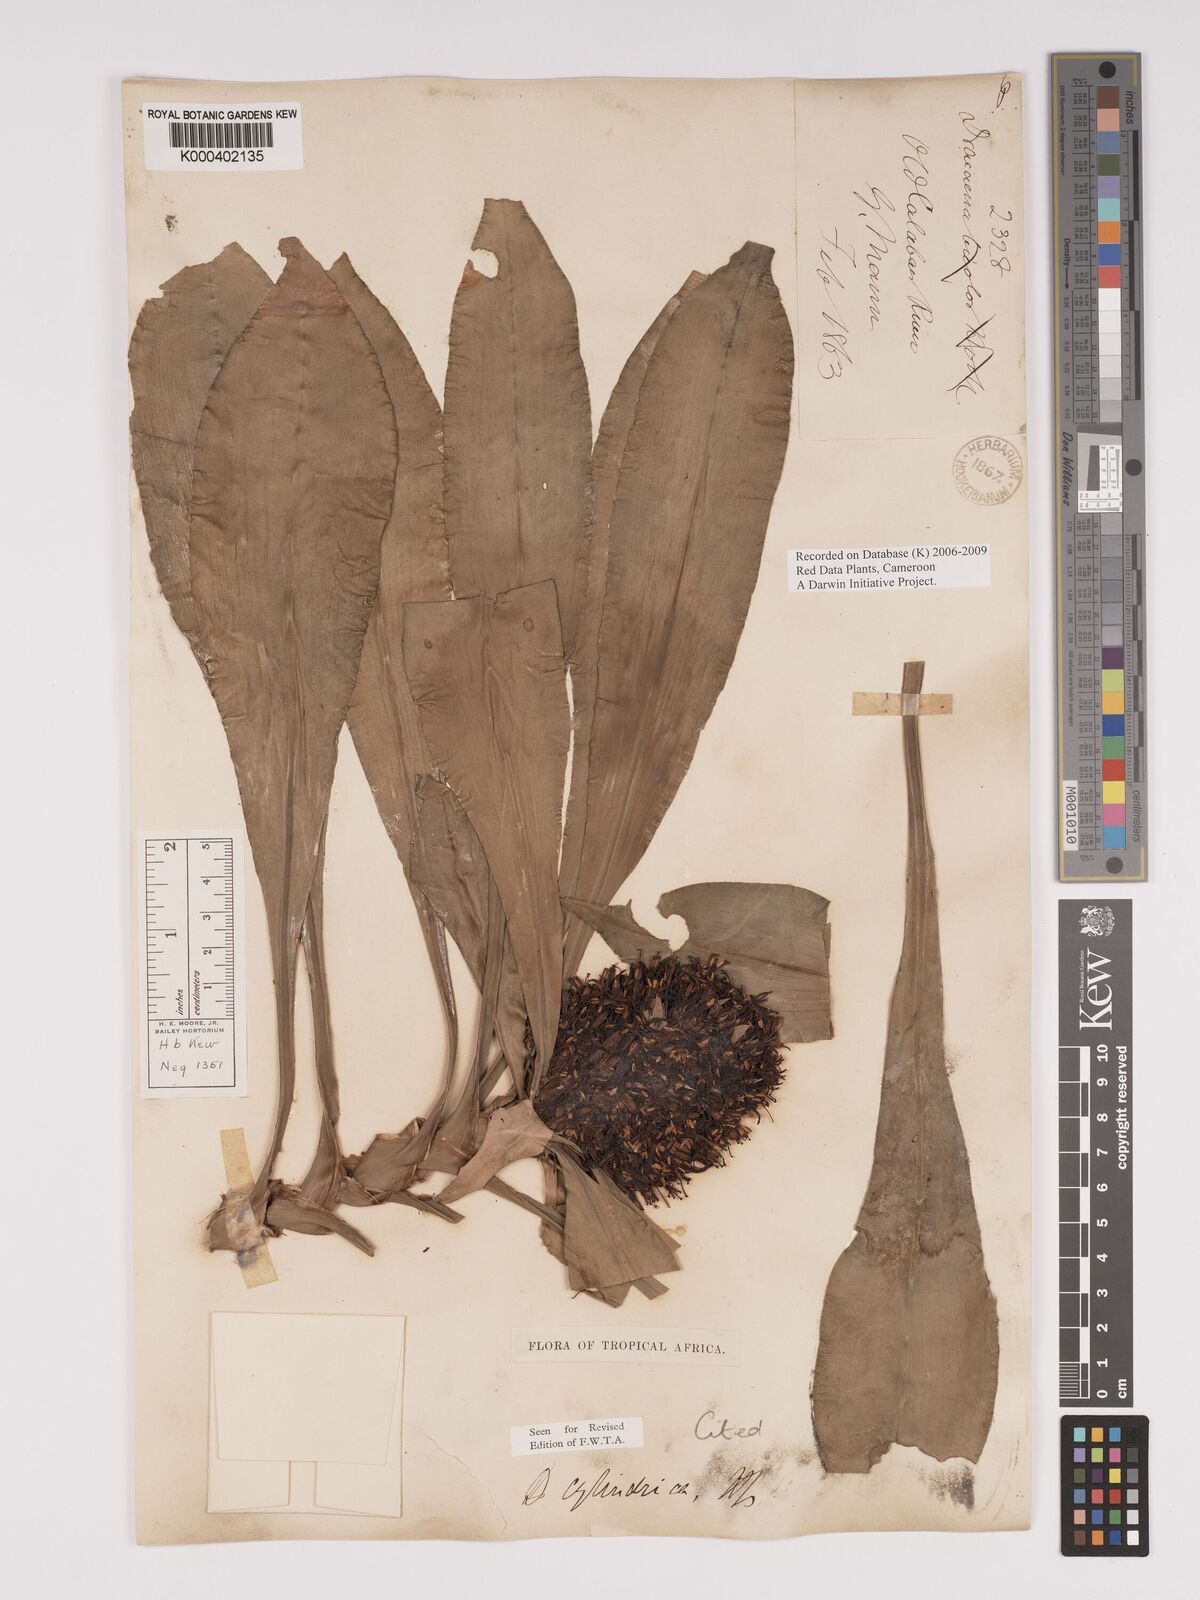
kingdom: Plantae
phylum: Tracheophyta
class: Liliopsida
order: Asparagales
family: Asparagaceae
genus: Dracaena
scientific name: Dracaena bicolor
